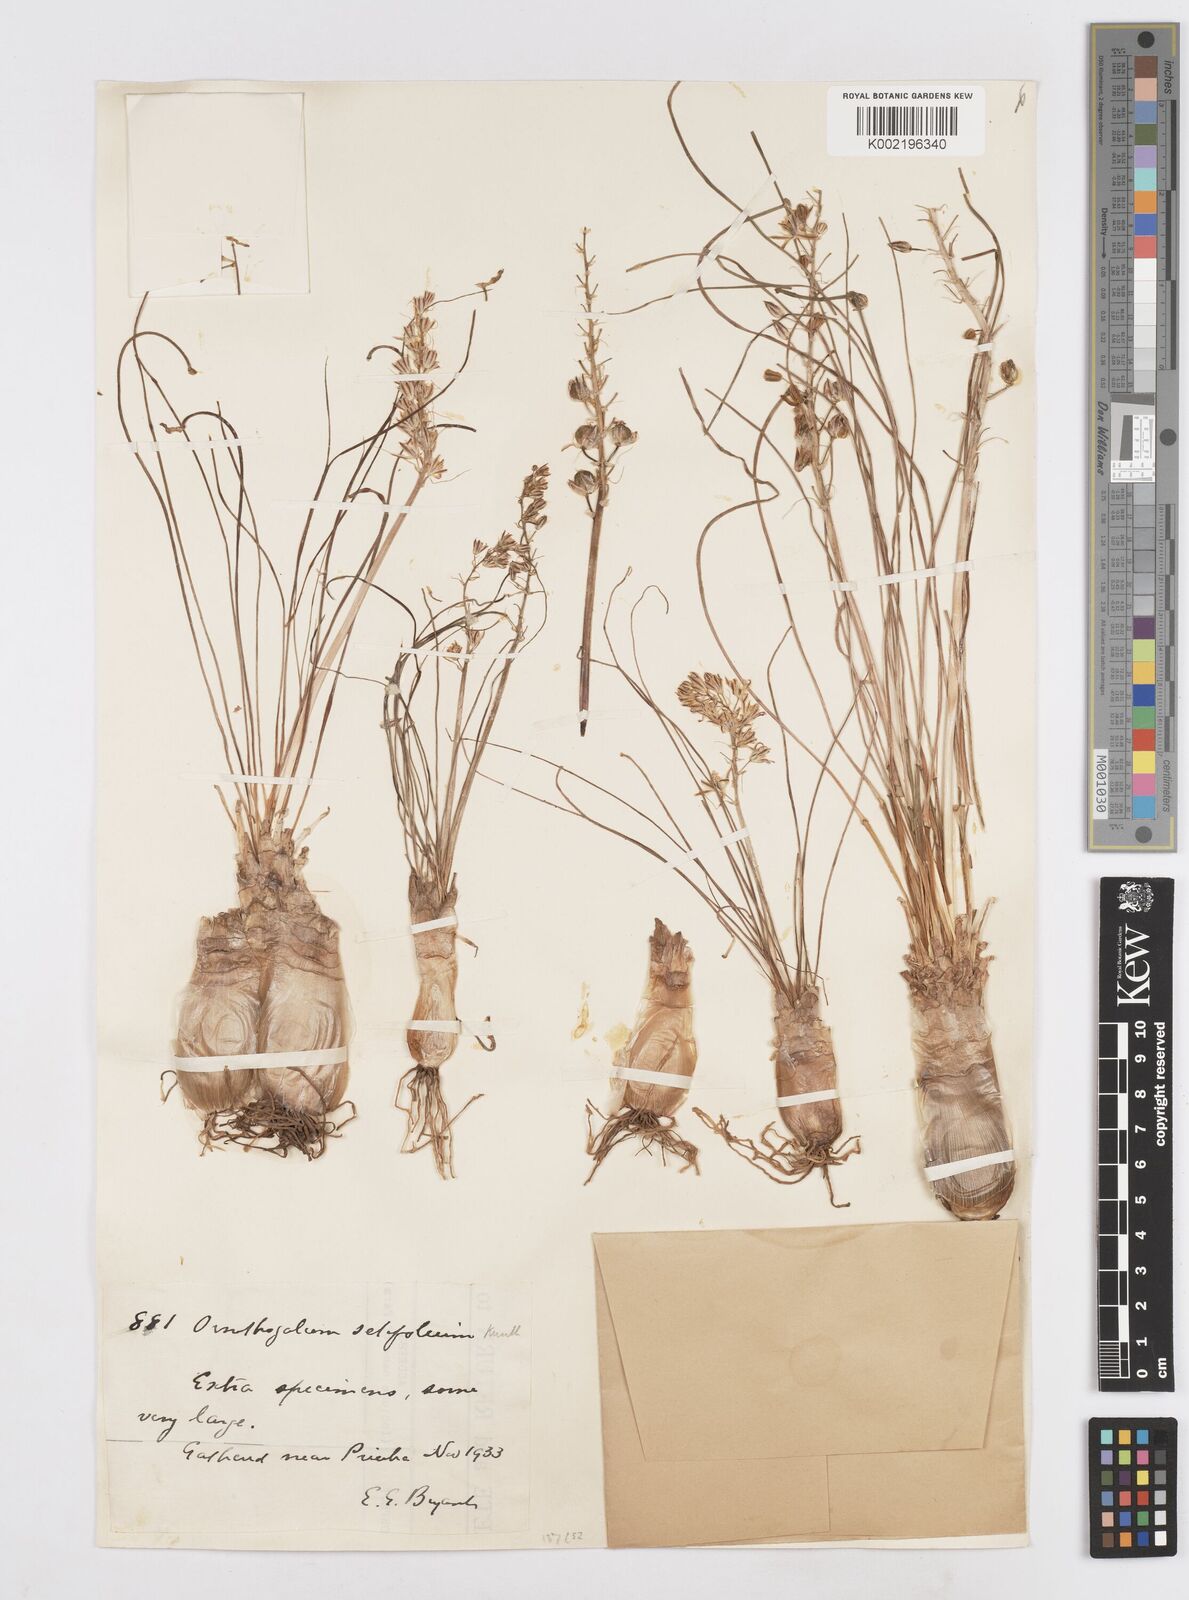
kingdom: Plantae
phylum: Tracheophyta
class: Liliopsida
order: Asparagales
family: Asparagaceae
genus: Ornithogalum
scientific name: Ornithogalum juncifolium
